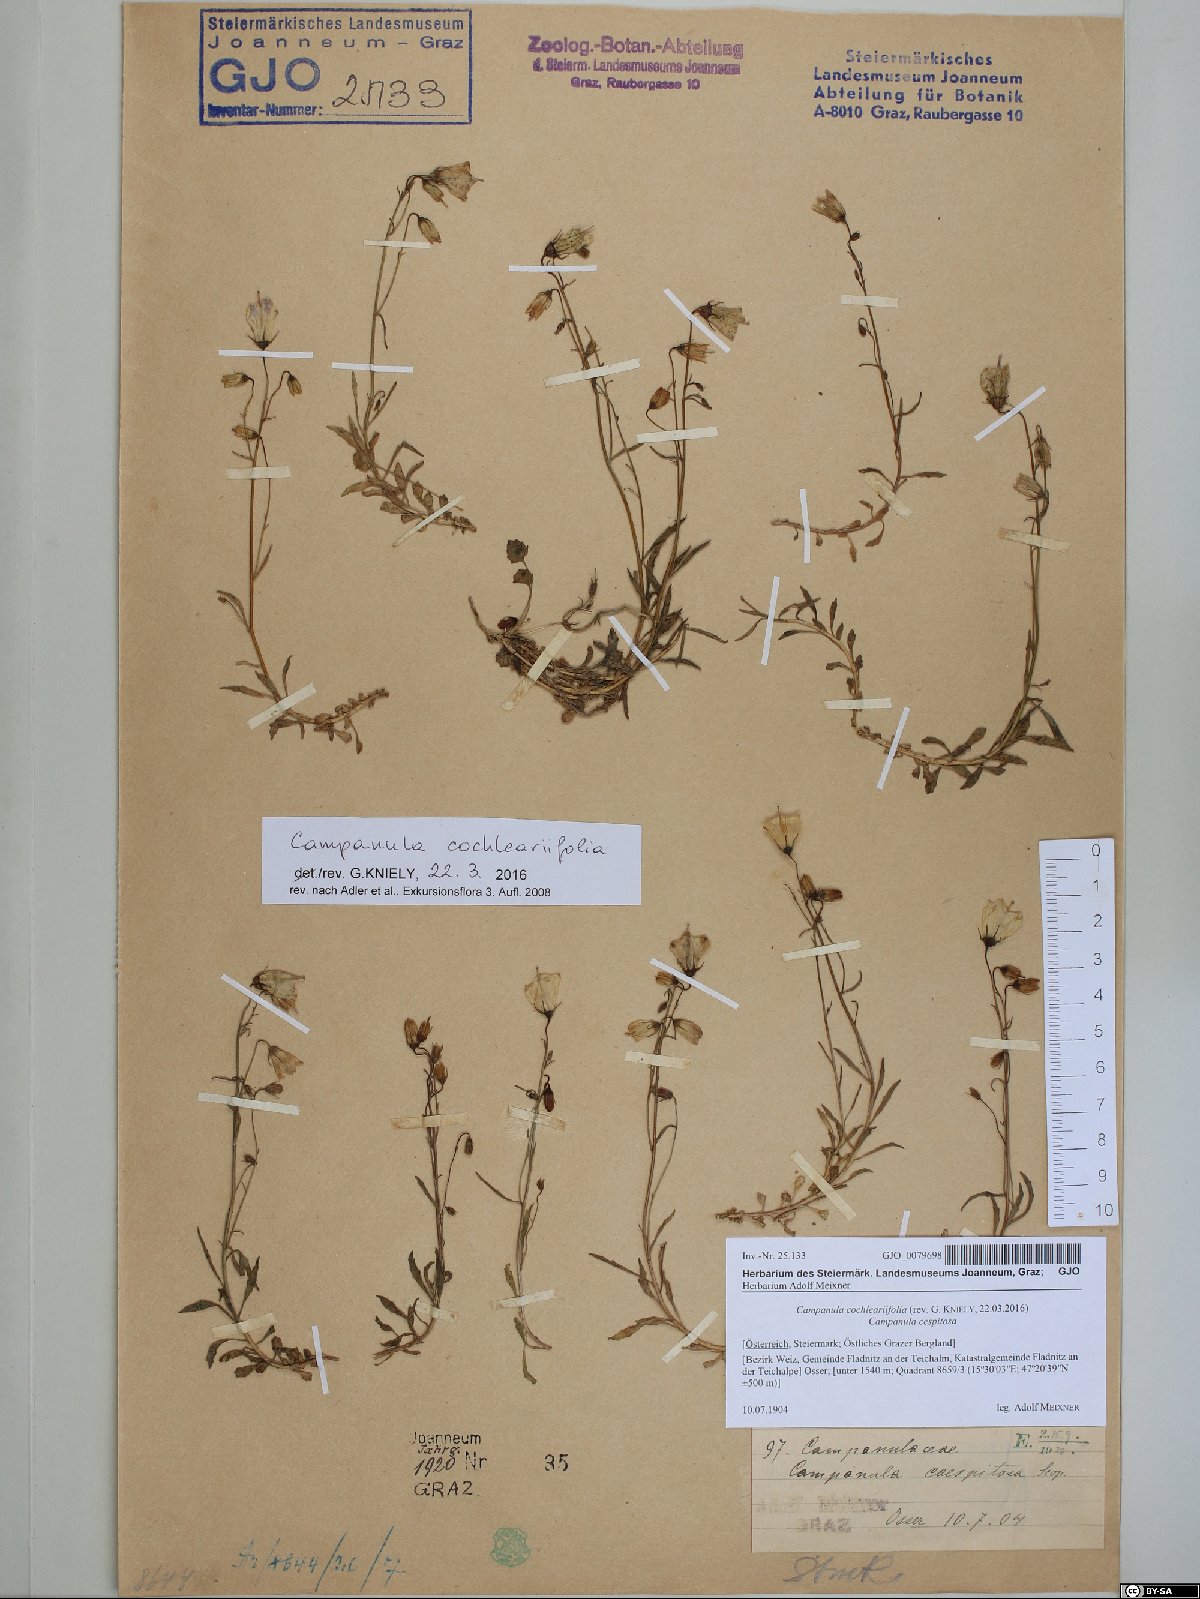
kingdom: Plantae
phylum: Tracheophyta
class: Magnoliopsida
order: Asterales
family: Campanulaceae
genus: Campanula
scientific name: Campanula cochleariifolia
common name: Fairies'-thimbles
